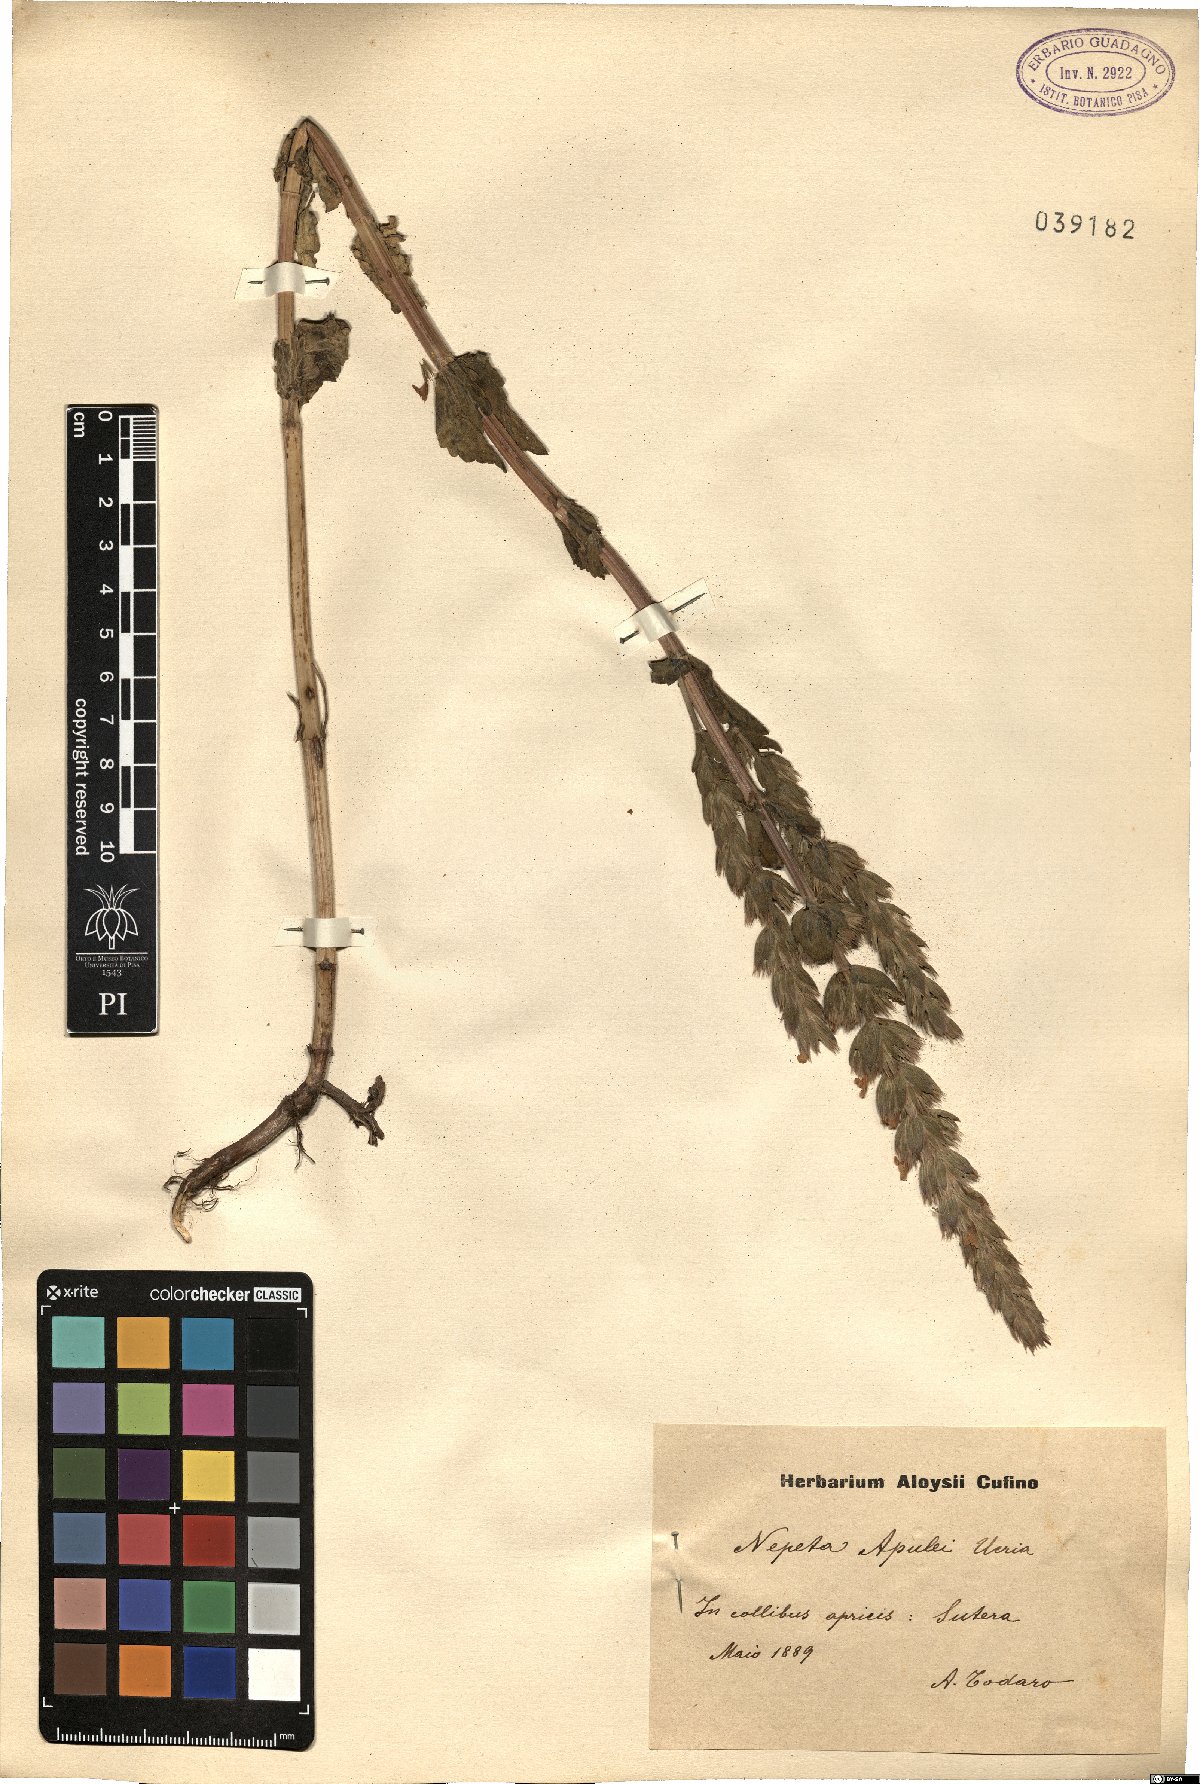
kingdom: Plantae
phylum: Tracheophyta
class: Magnoliopsida
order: Lamiales
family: Lamiaceae
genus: Nepeta
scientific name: Nepeta apuleji
